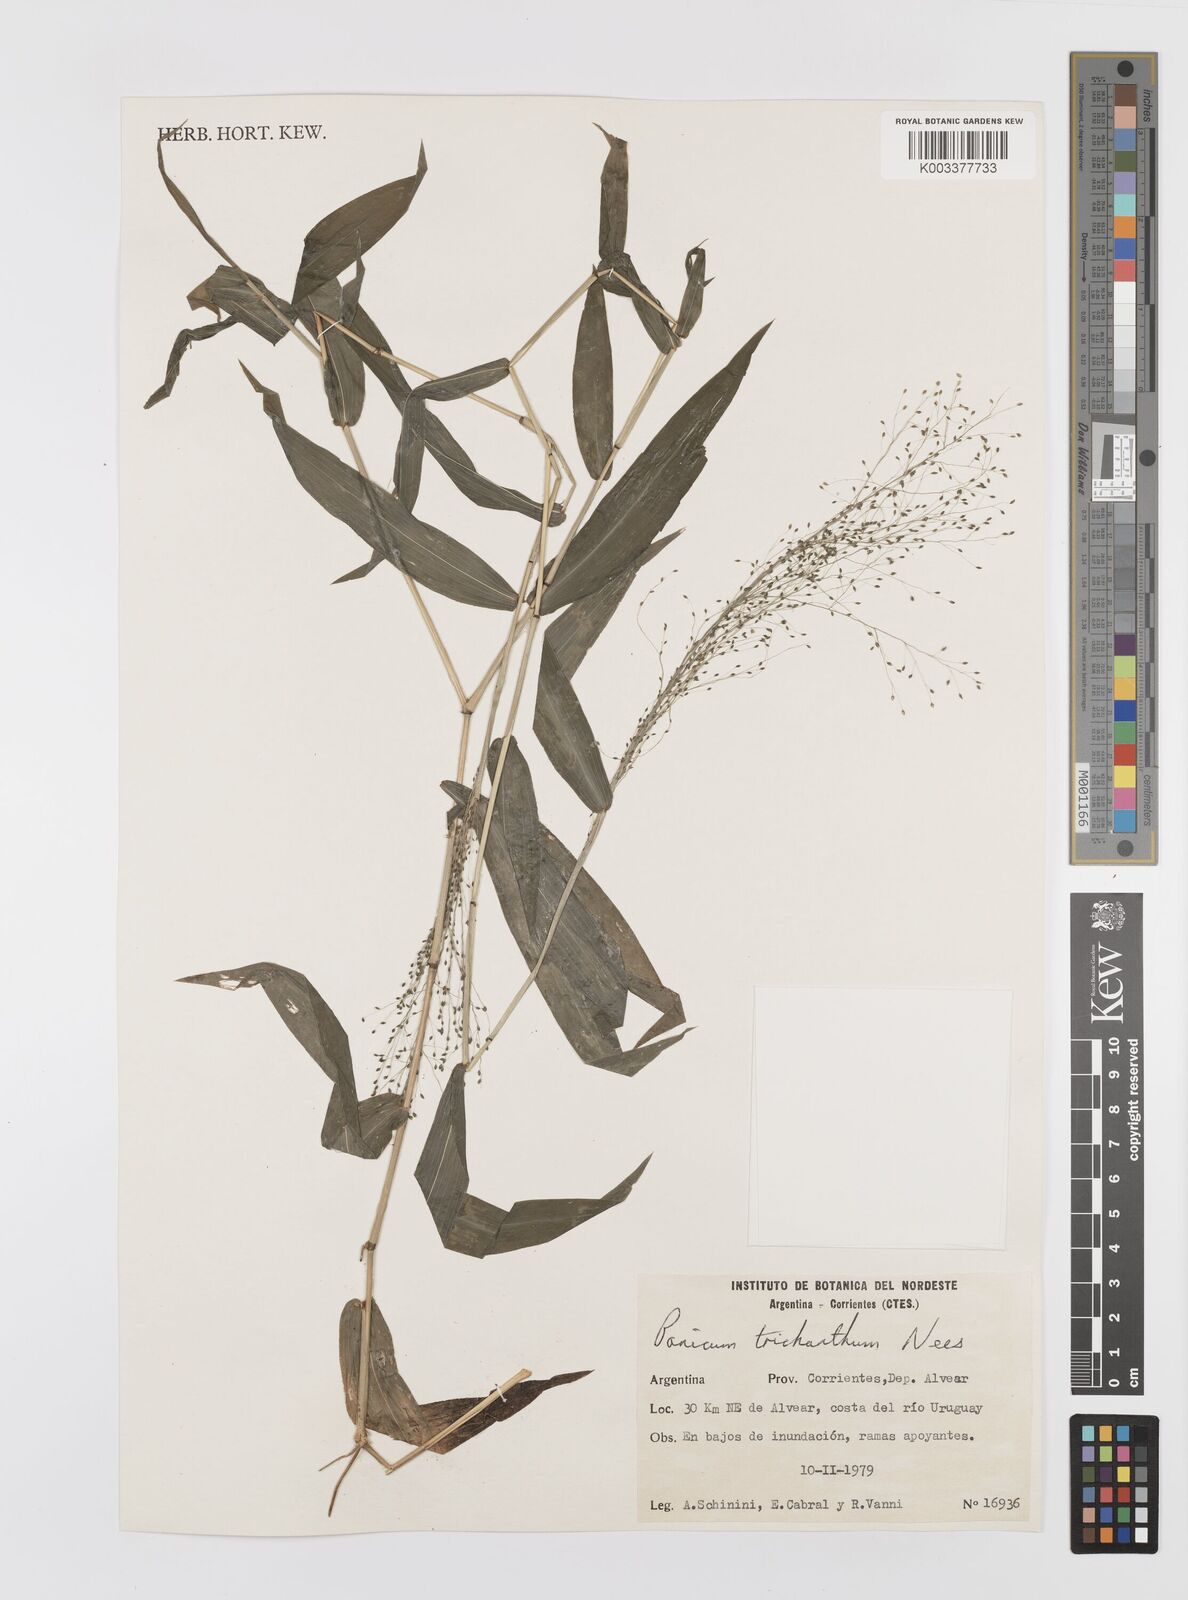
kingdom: Plantae
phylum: Tracheophyta
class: Liliopsida
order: Poales
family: Poaceae
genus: Panicum
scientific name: Panicum trichanthum
